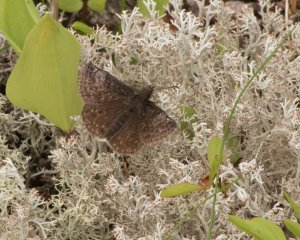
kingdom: Animalia
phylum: Arthropoda
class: Insecta
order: Lepidoptera
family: Hesperiidae
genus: Erynnis
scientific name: Erynnis icelus
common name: Dreamy Duskywing
